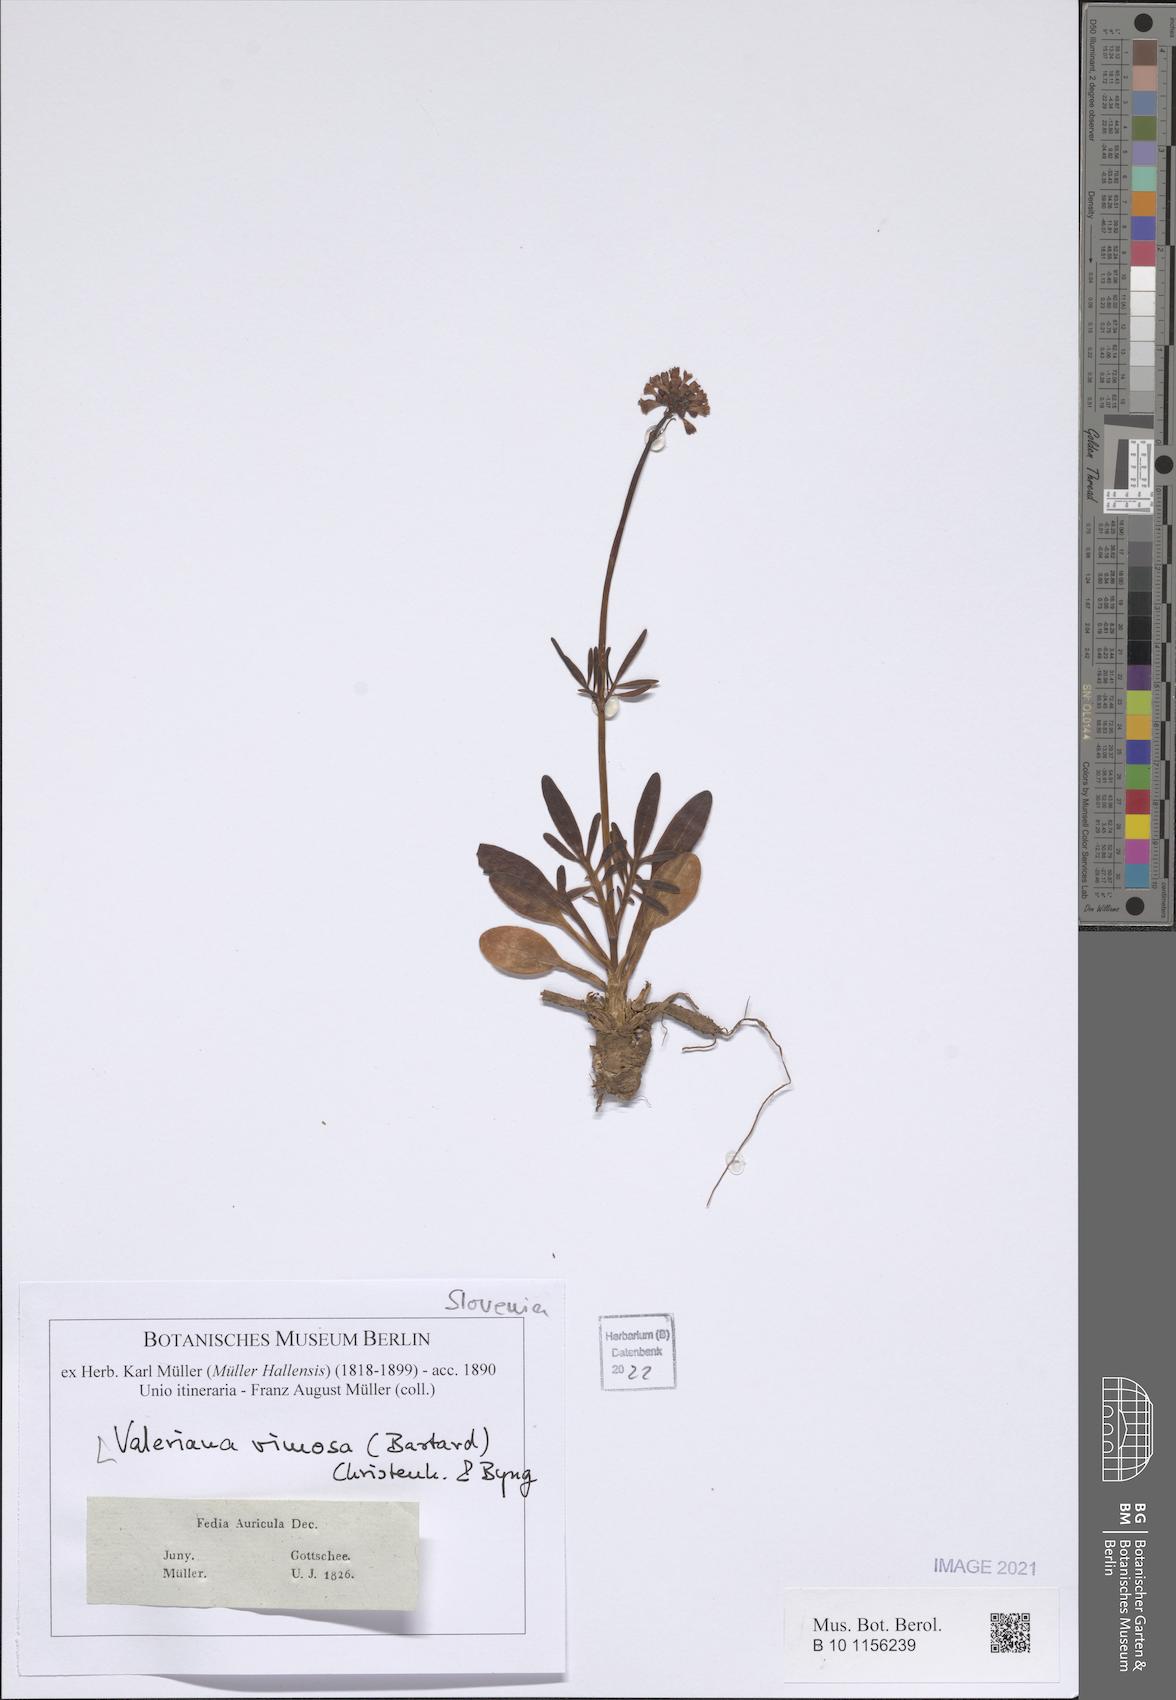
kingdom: Plantae
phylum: Tracheophyta
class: Magnoliopsida
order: Dipsacales
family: Caprifoliaceae
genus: Valerianella
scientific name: Valerianella rimosa
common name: Broad-fruited cornsalad
